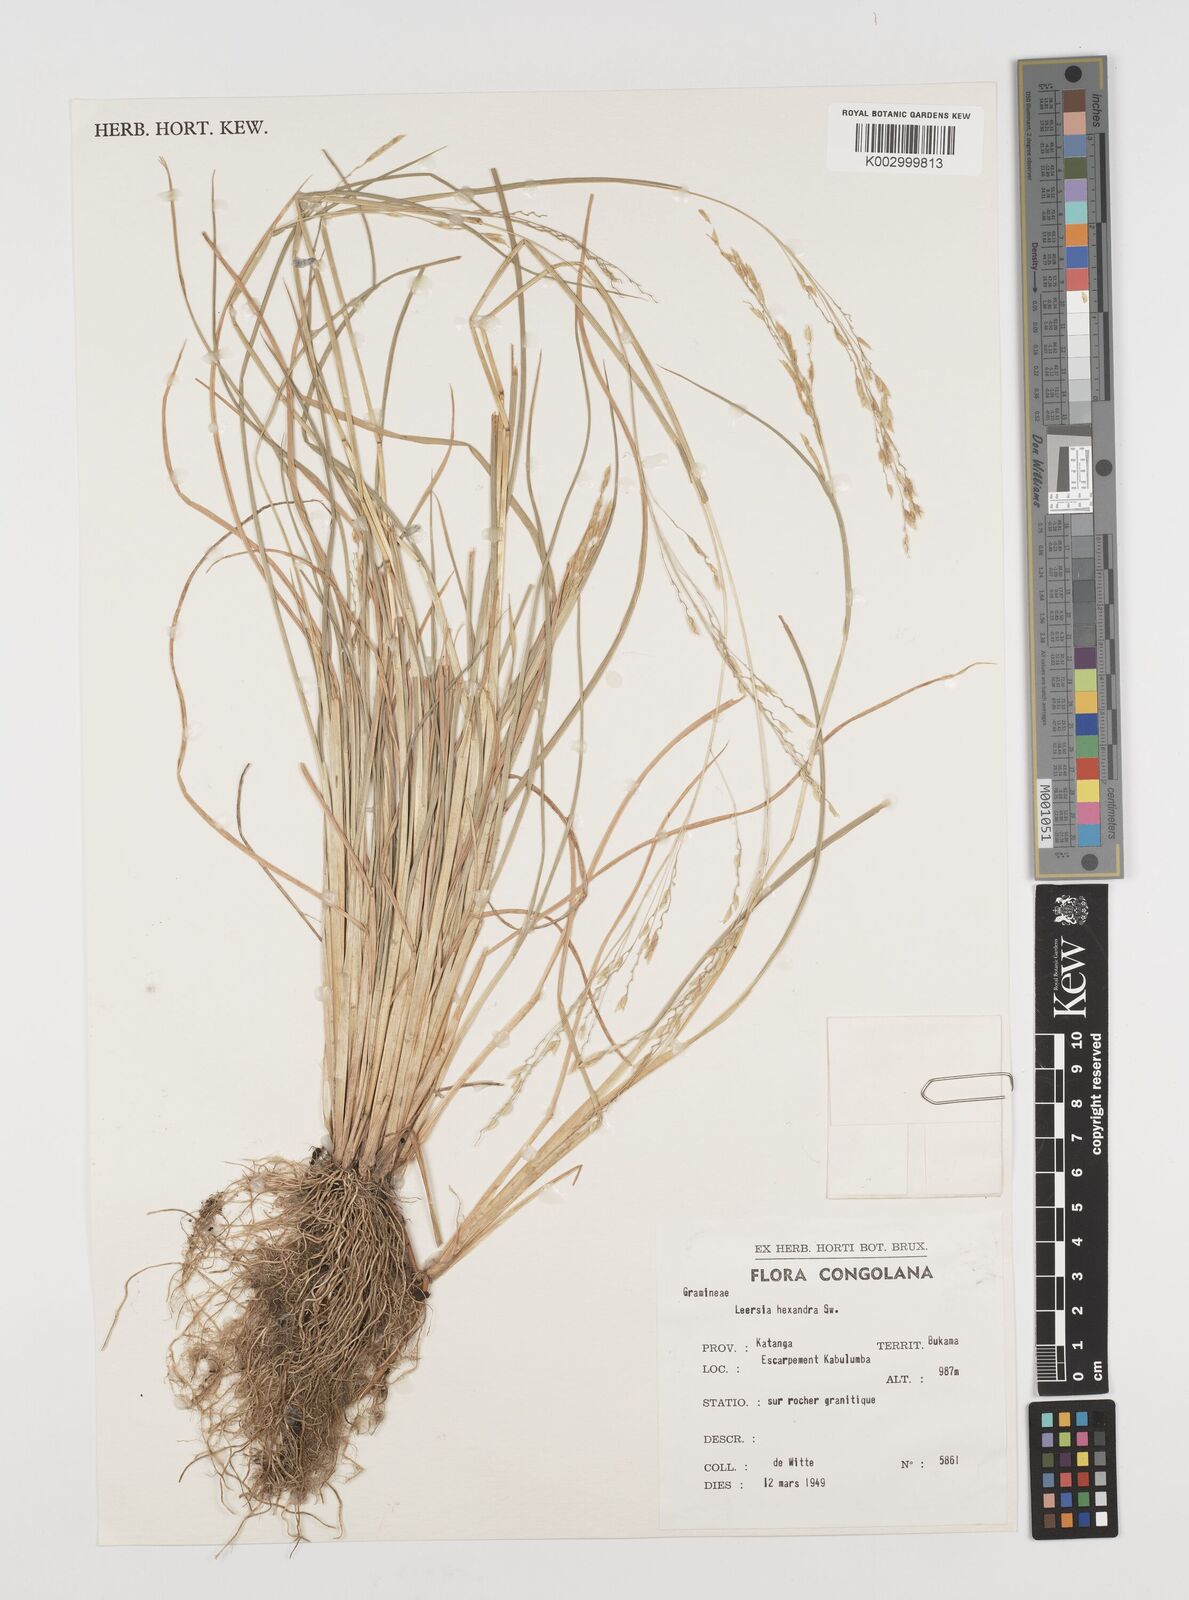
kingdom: Plantae
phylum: Tracheophyta
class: Liliopsida
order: Poales
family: Poaceae
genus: Leersia
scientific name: Leersia hexandra
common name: Southern cut grass
